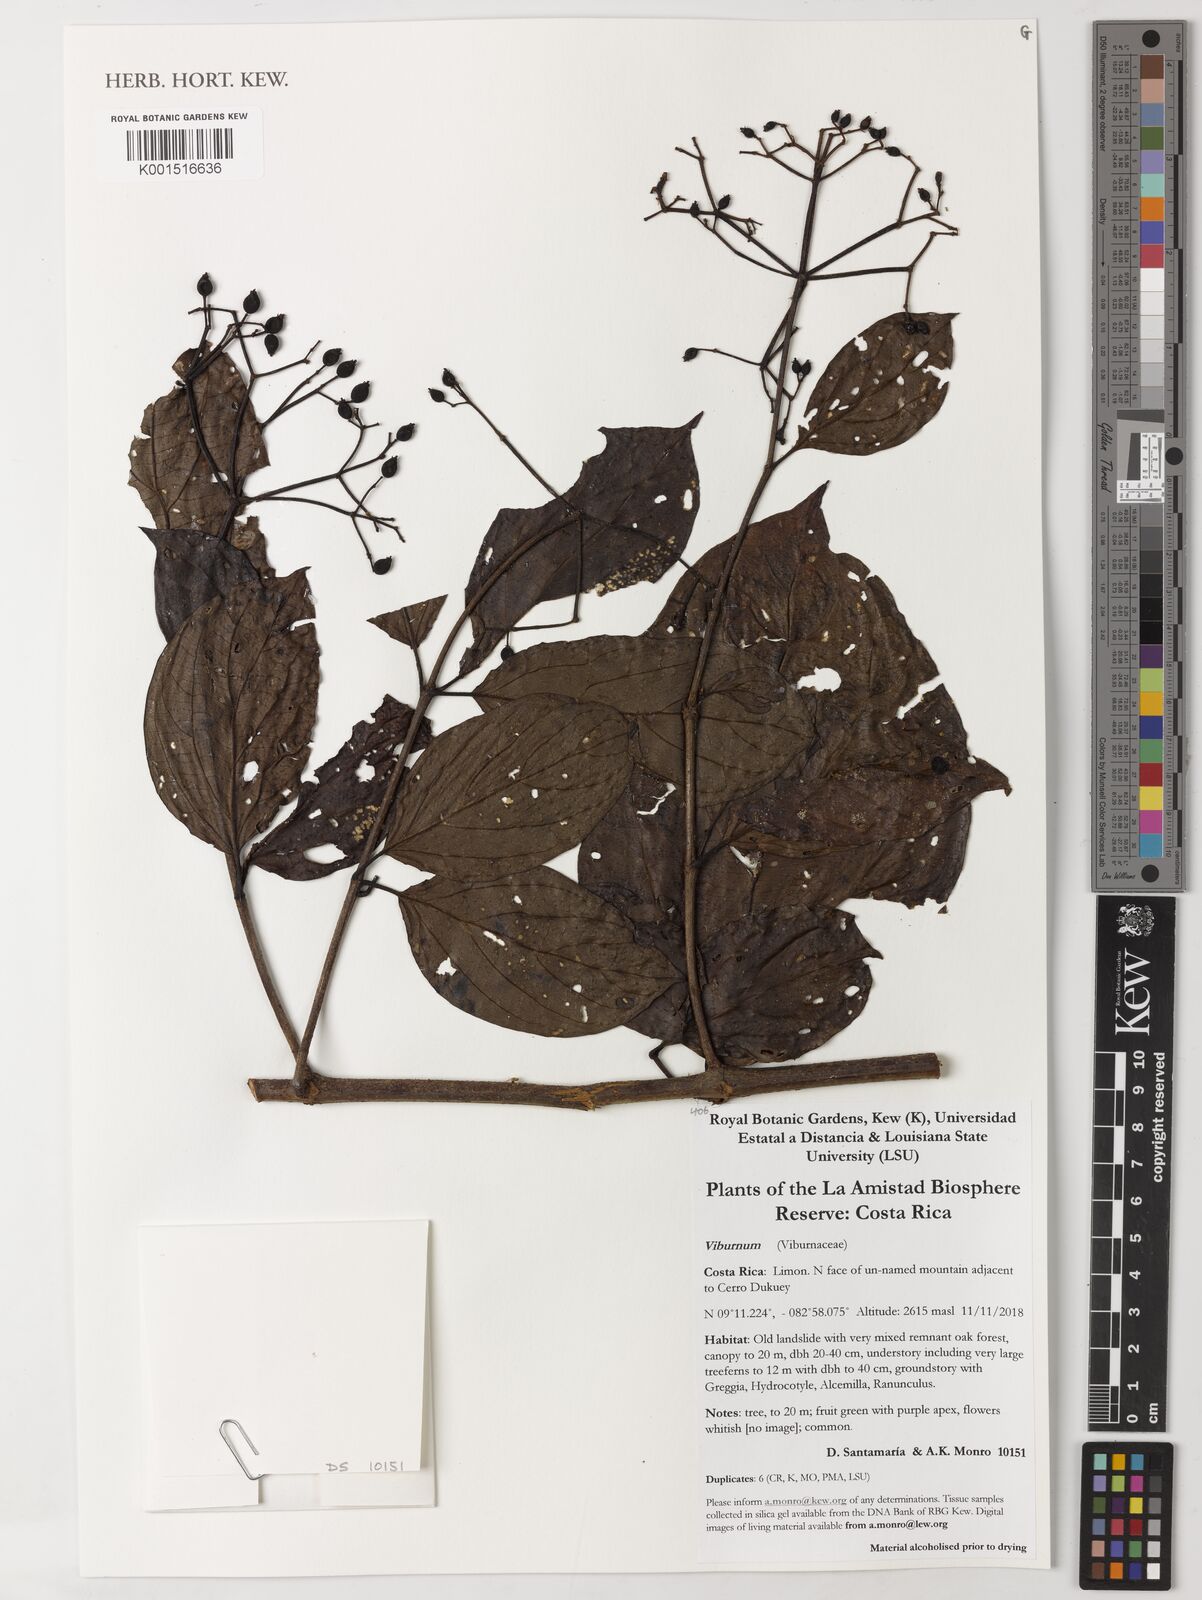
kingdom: Plantae
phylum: Tracheophyta
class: Magnoliopsida
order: Dipsacales
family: Viburnaceae
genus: Viburnum
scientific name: Viburnum
